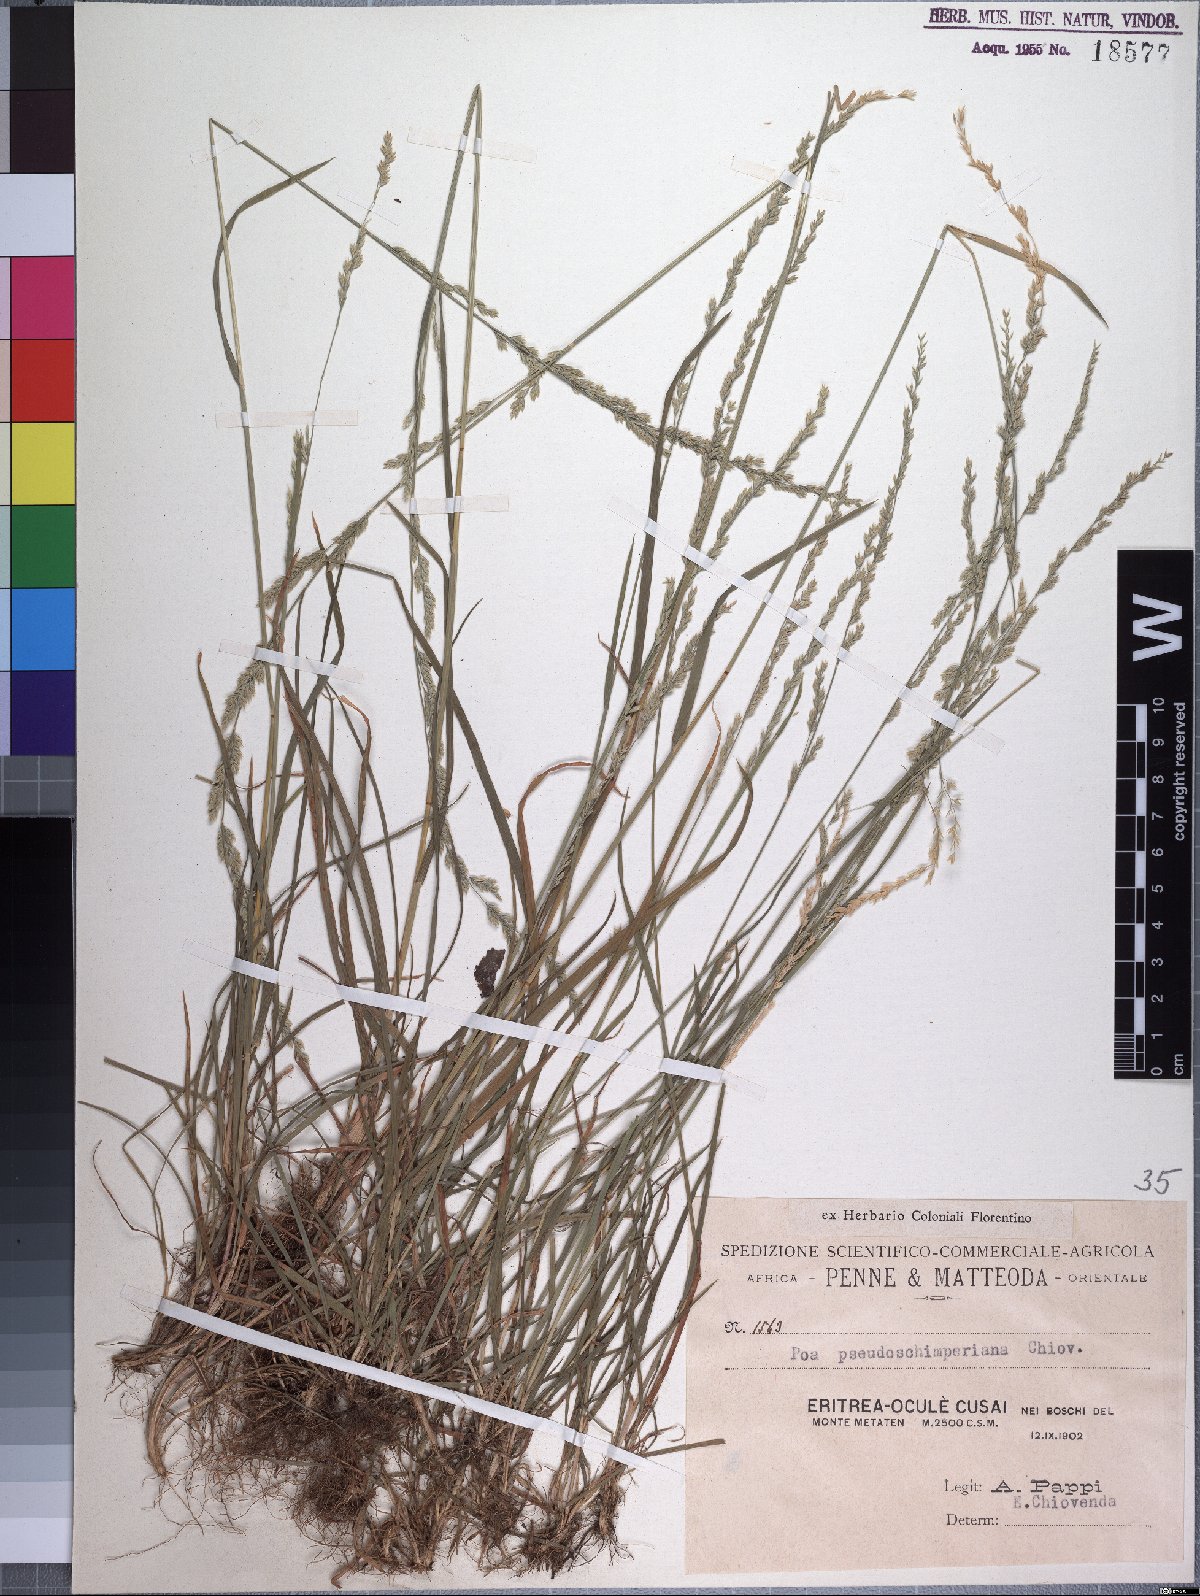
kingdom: Plantae
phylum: Tracheophyta
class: Liliopsida
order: Poales
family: Poaceae
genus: Poa
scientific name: Poa pseudoschimperiana
